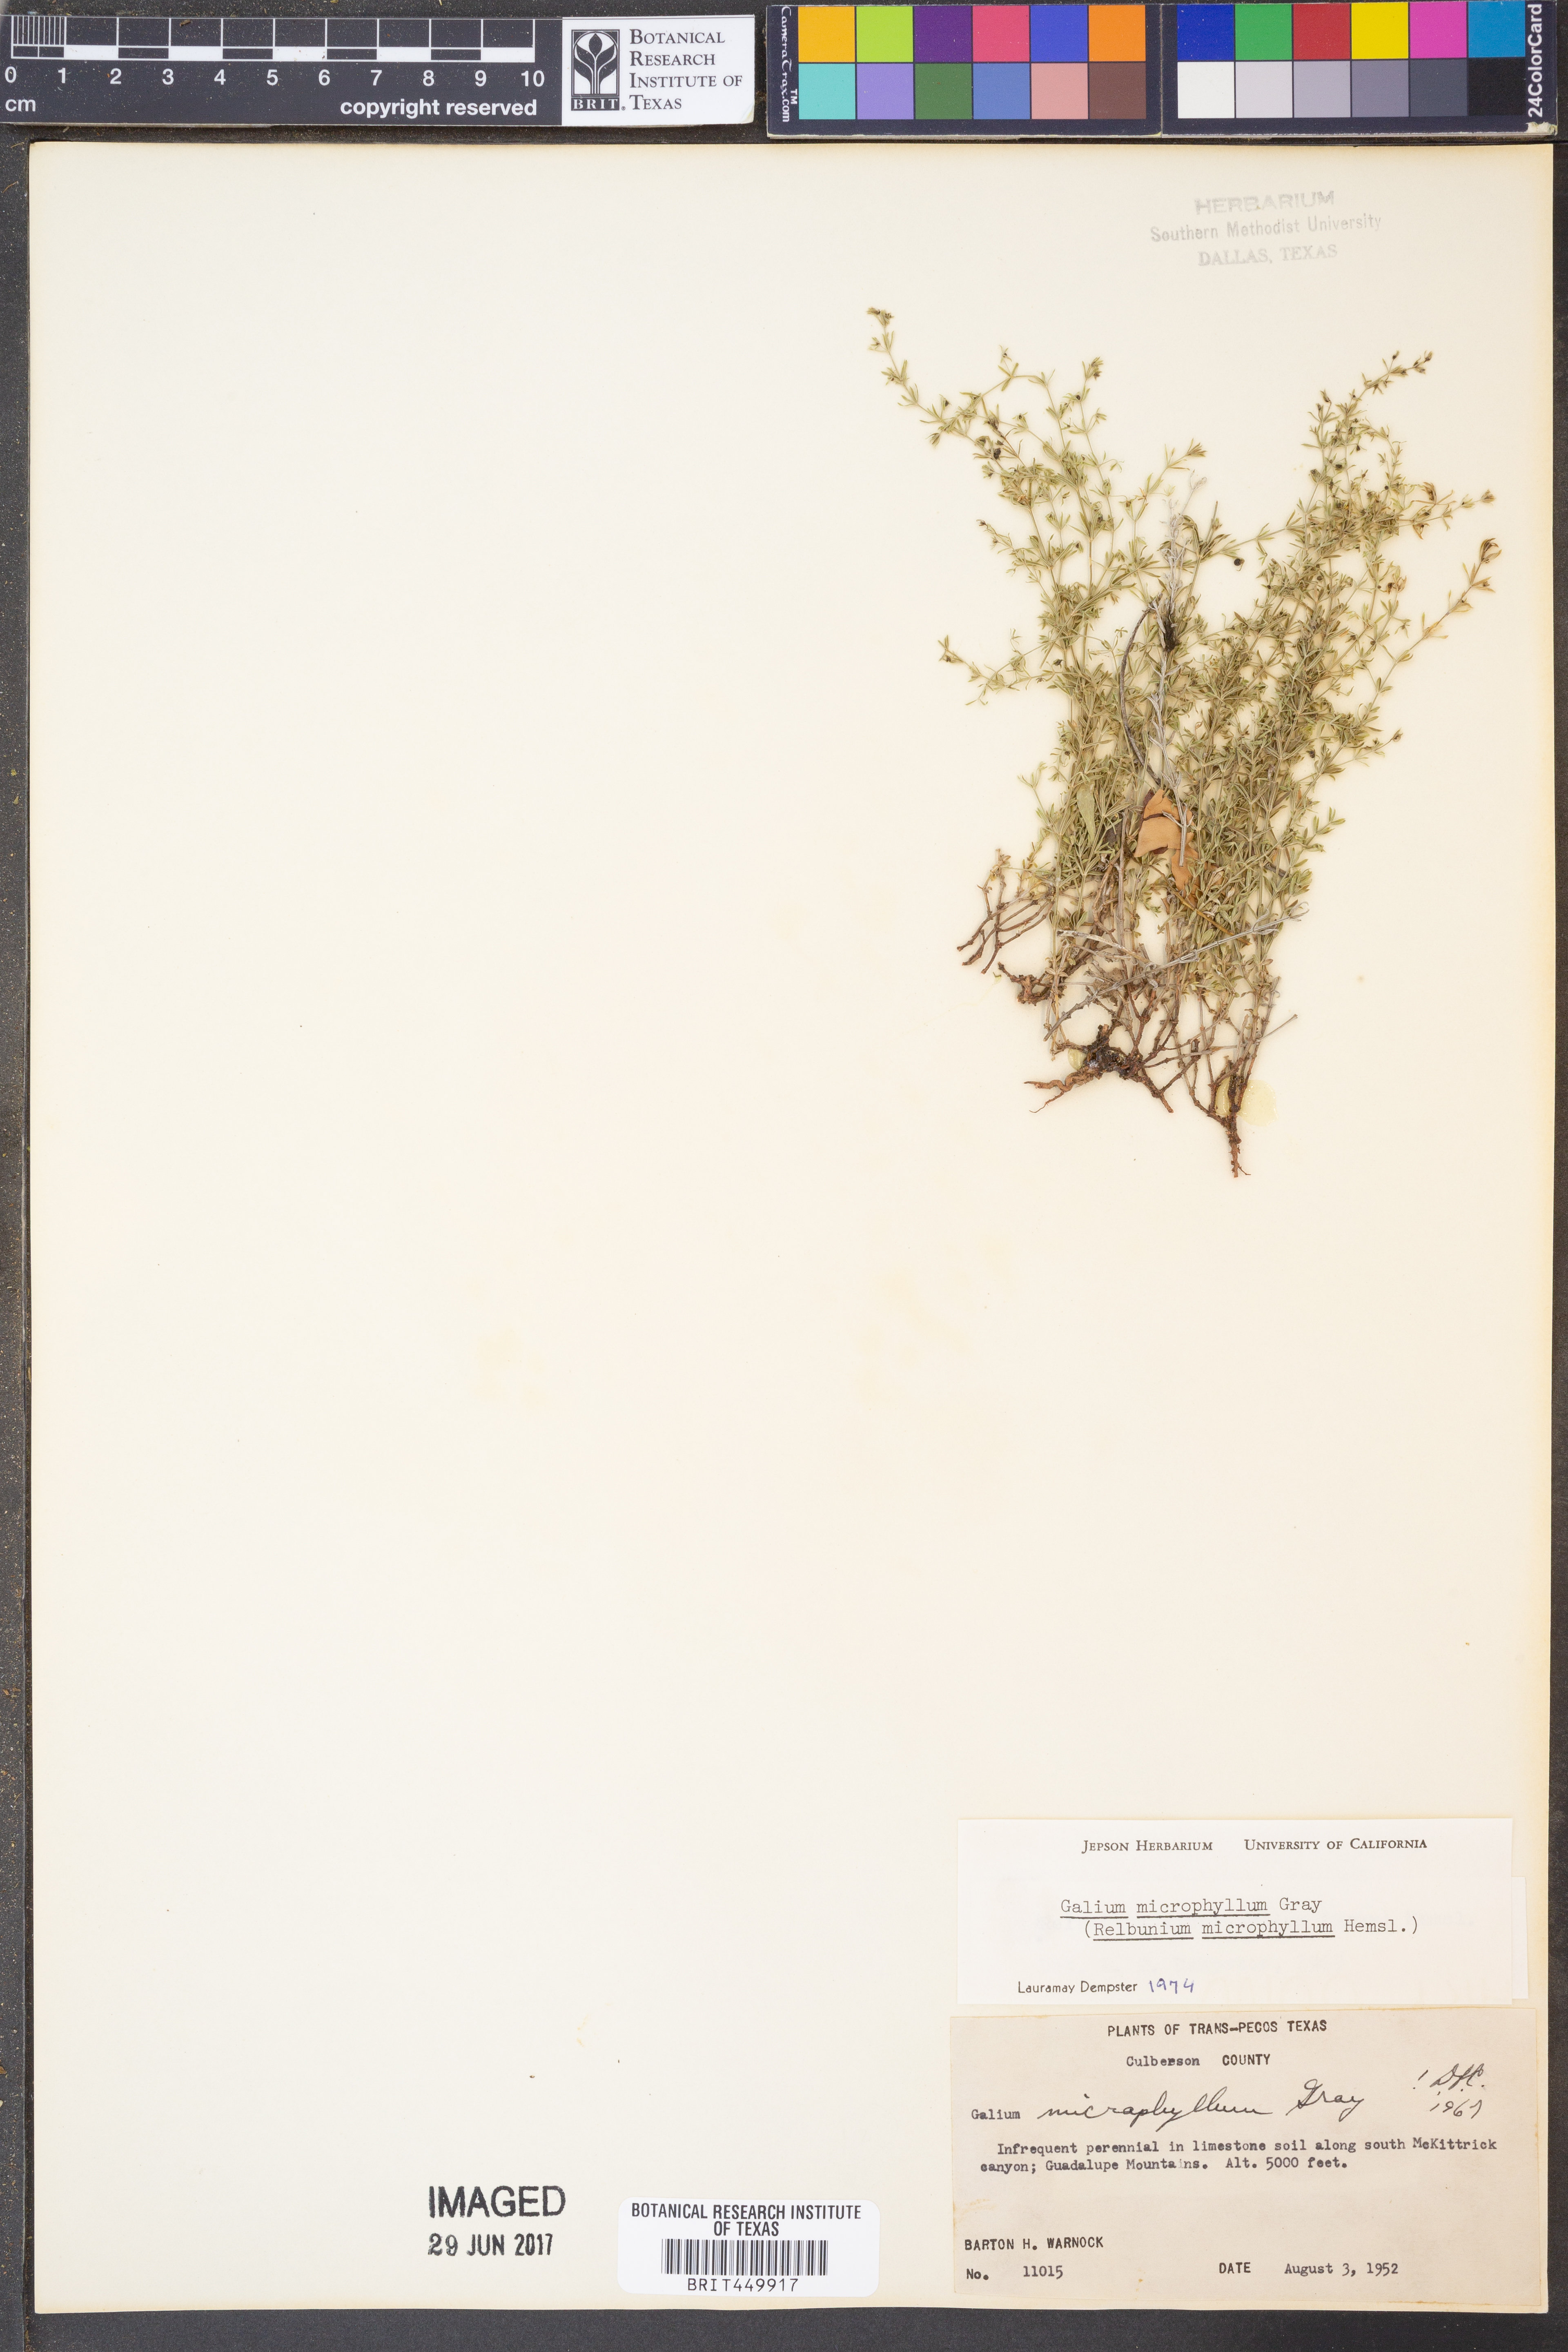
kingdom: Plantae
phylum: Tracheophyta
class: Magnoliopsida
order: Gentianales
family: Rubiaceae
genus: Galium
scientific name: Galium microphyllum
